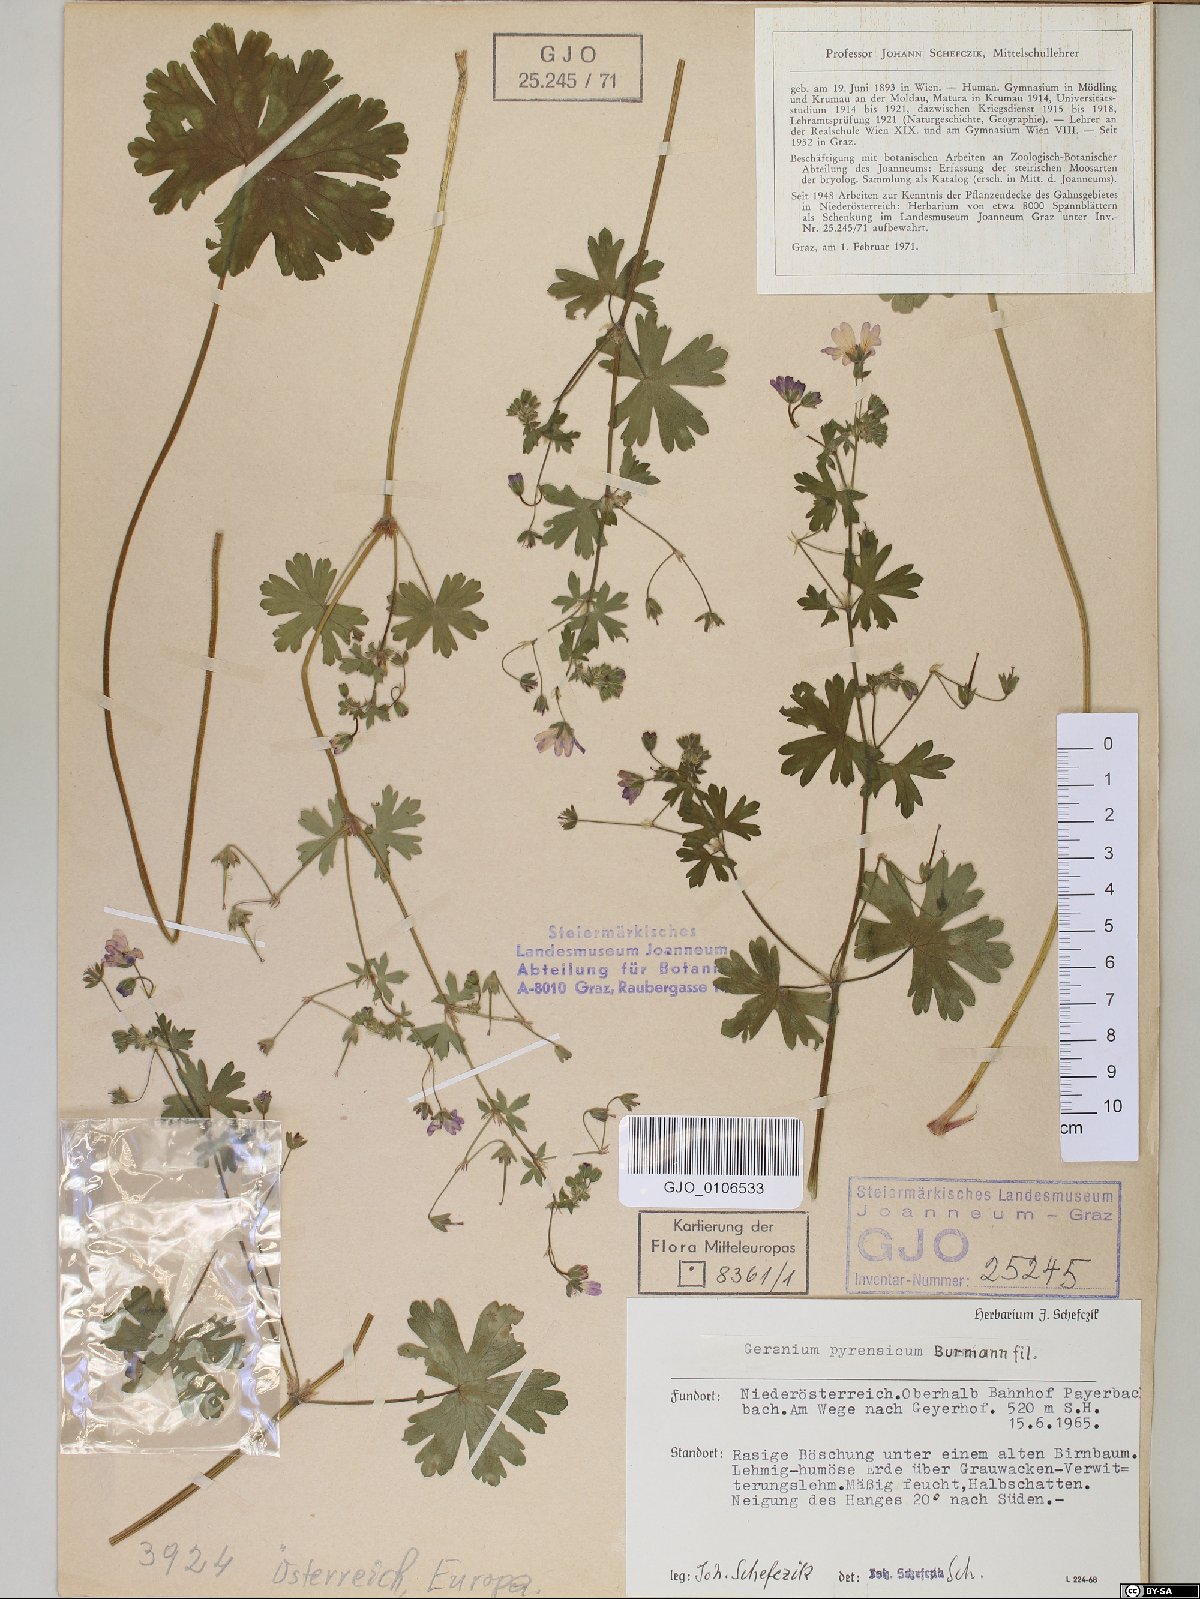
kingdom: Plantae
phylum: Tracheophyta
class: Magnoliopsida
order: Geraniales
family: Geraniaceae
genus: Geranium
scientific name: Geranium pyrenaicum
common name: Hedgerow crane's-bill
